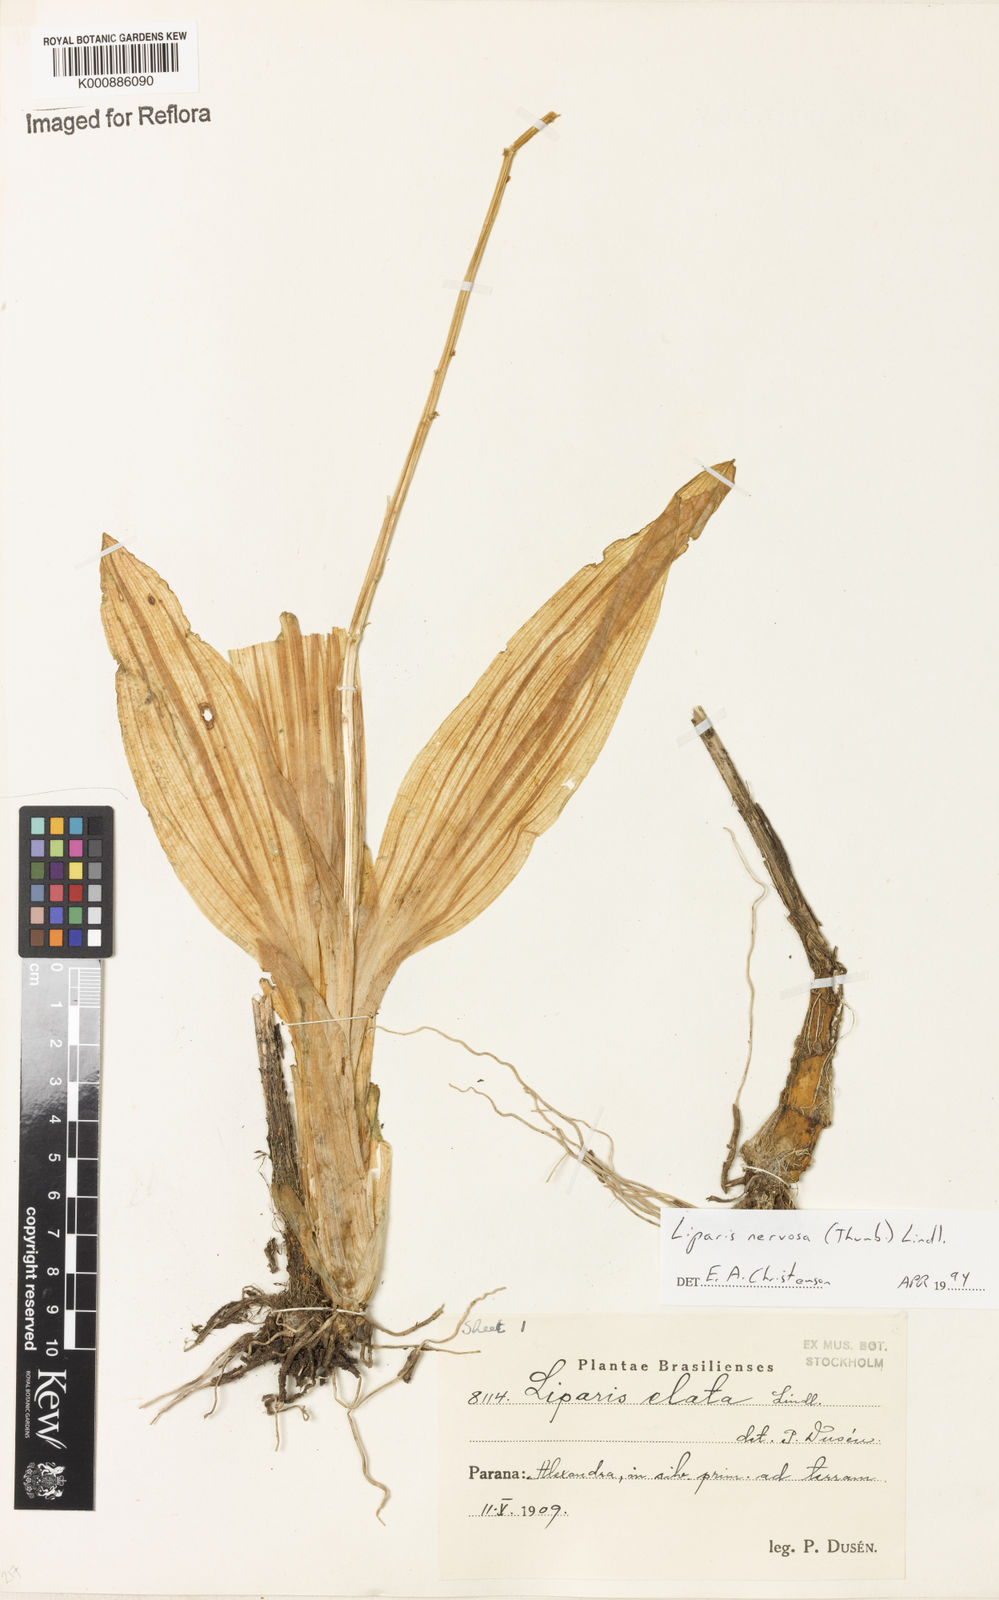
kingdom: Plantae
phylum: Tracheophyta
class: Liliopsida
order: Asparagales
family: Orchidaceae
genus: Liparis
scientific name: Liparis nervosa
